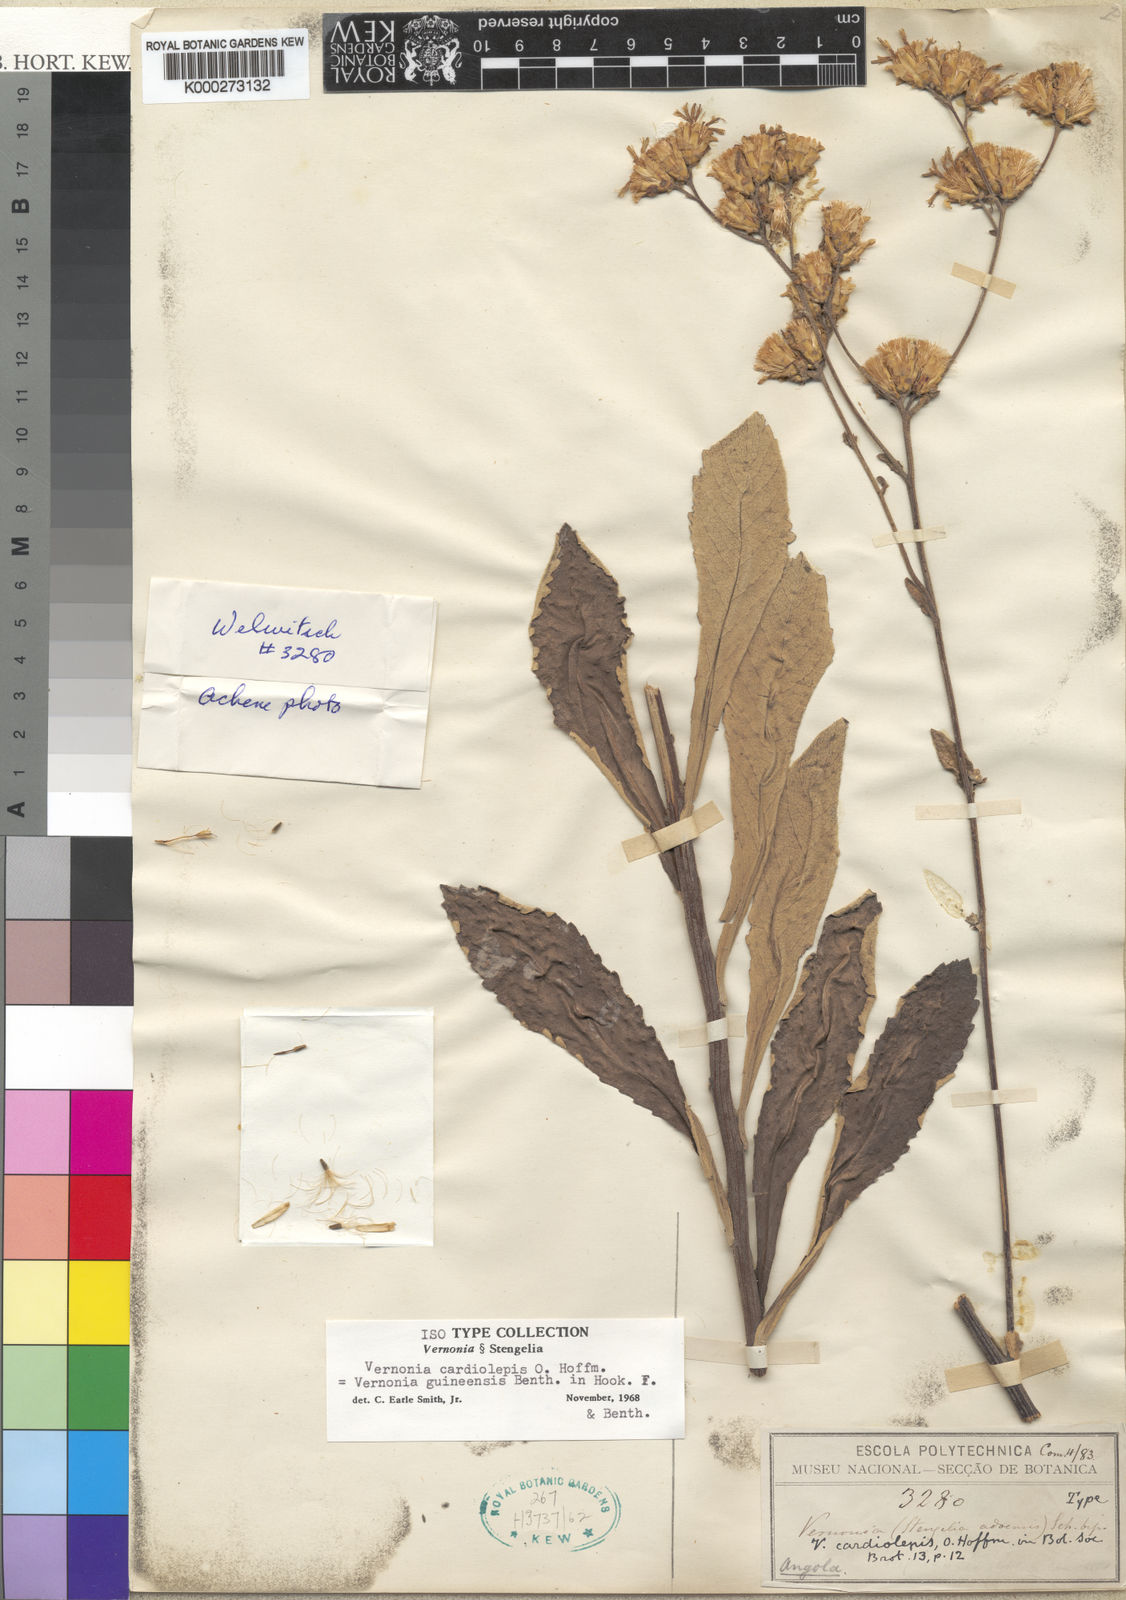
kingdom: Plantae
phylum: Tracheophyta
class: Magnoliopsida
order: Asterales
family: Asteraceae
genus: Baccharoides
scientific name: Baccharoides cardiolepis
